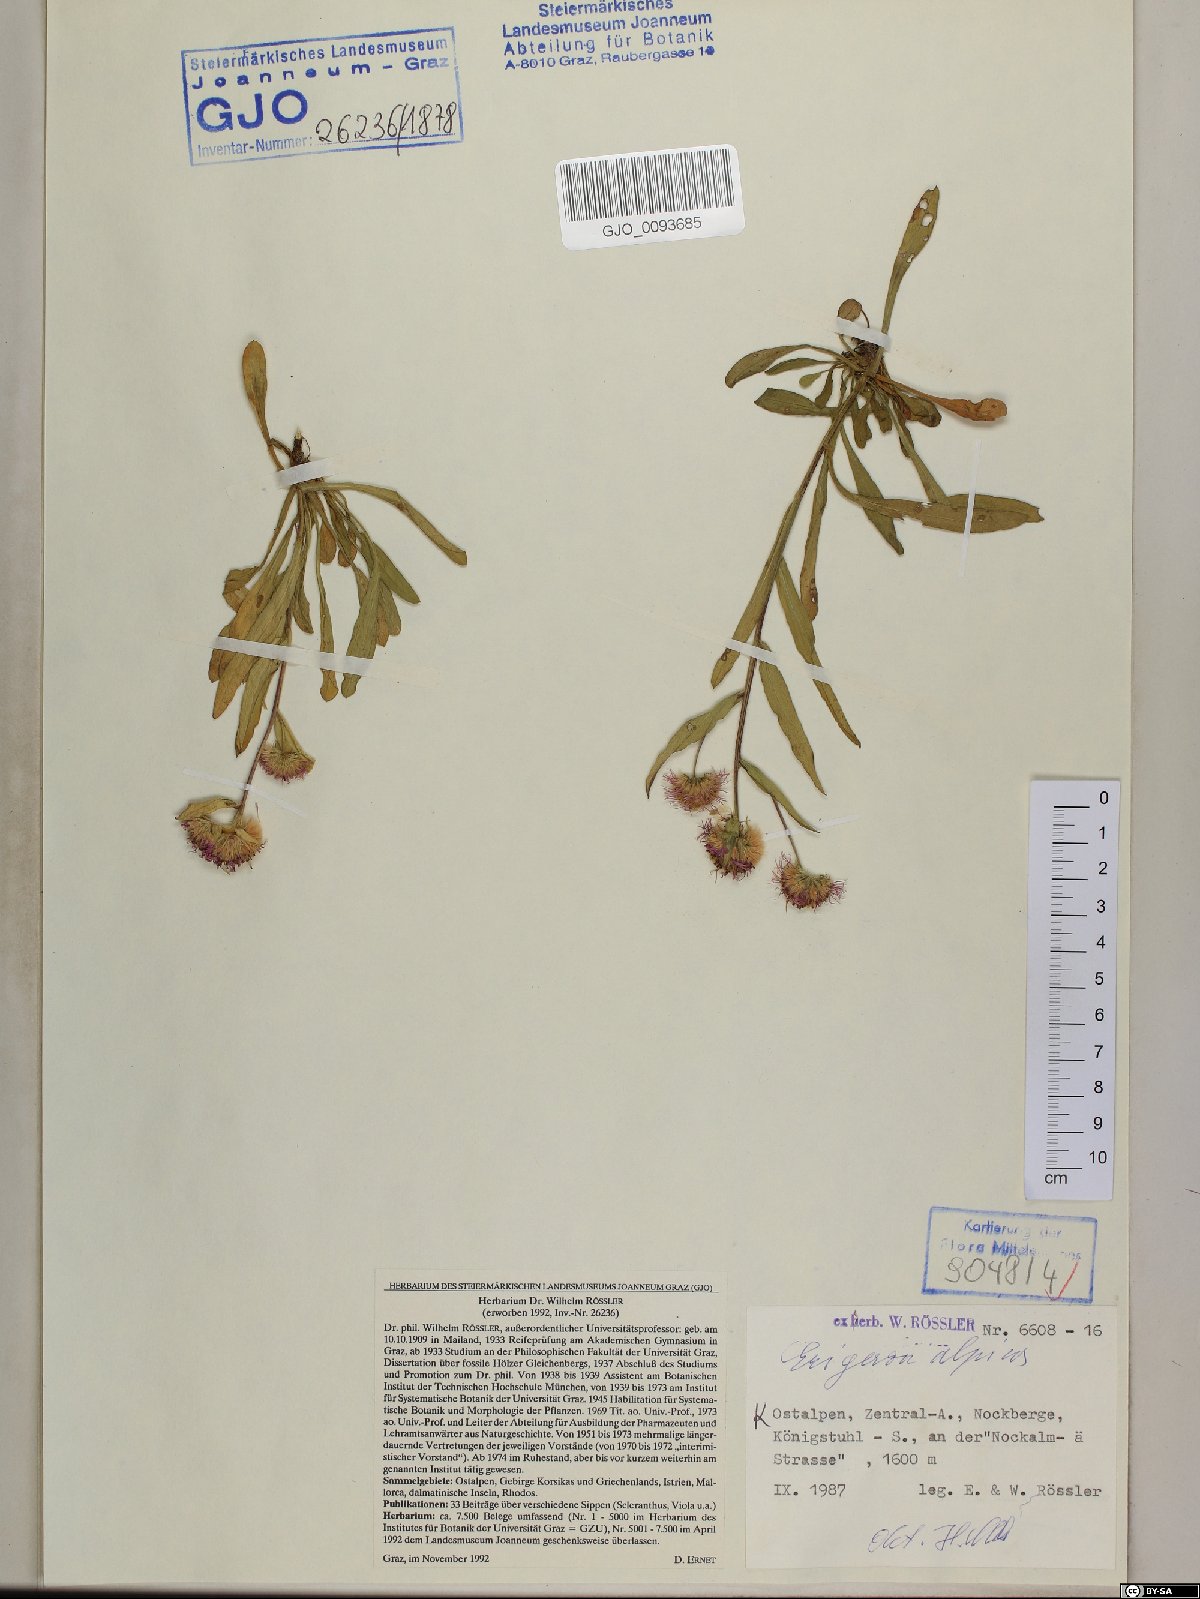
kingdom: Plantae
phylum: Tracheophyta
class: Magnoliopsida
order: Asterales
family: Asteraceae
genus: Erigeron
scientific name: Erigeron alpinus
